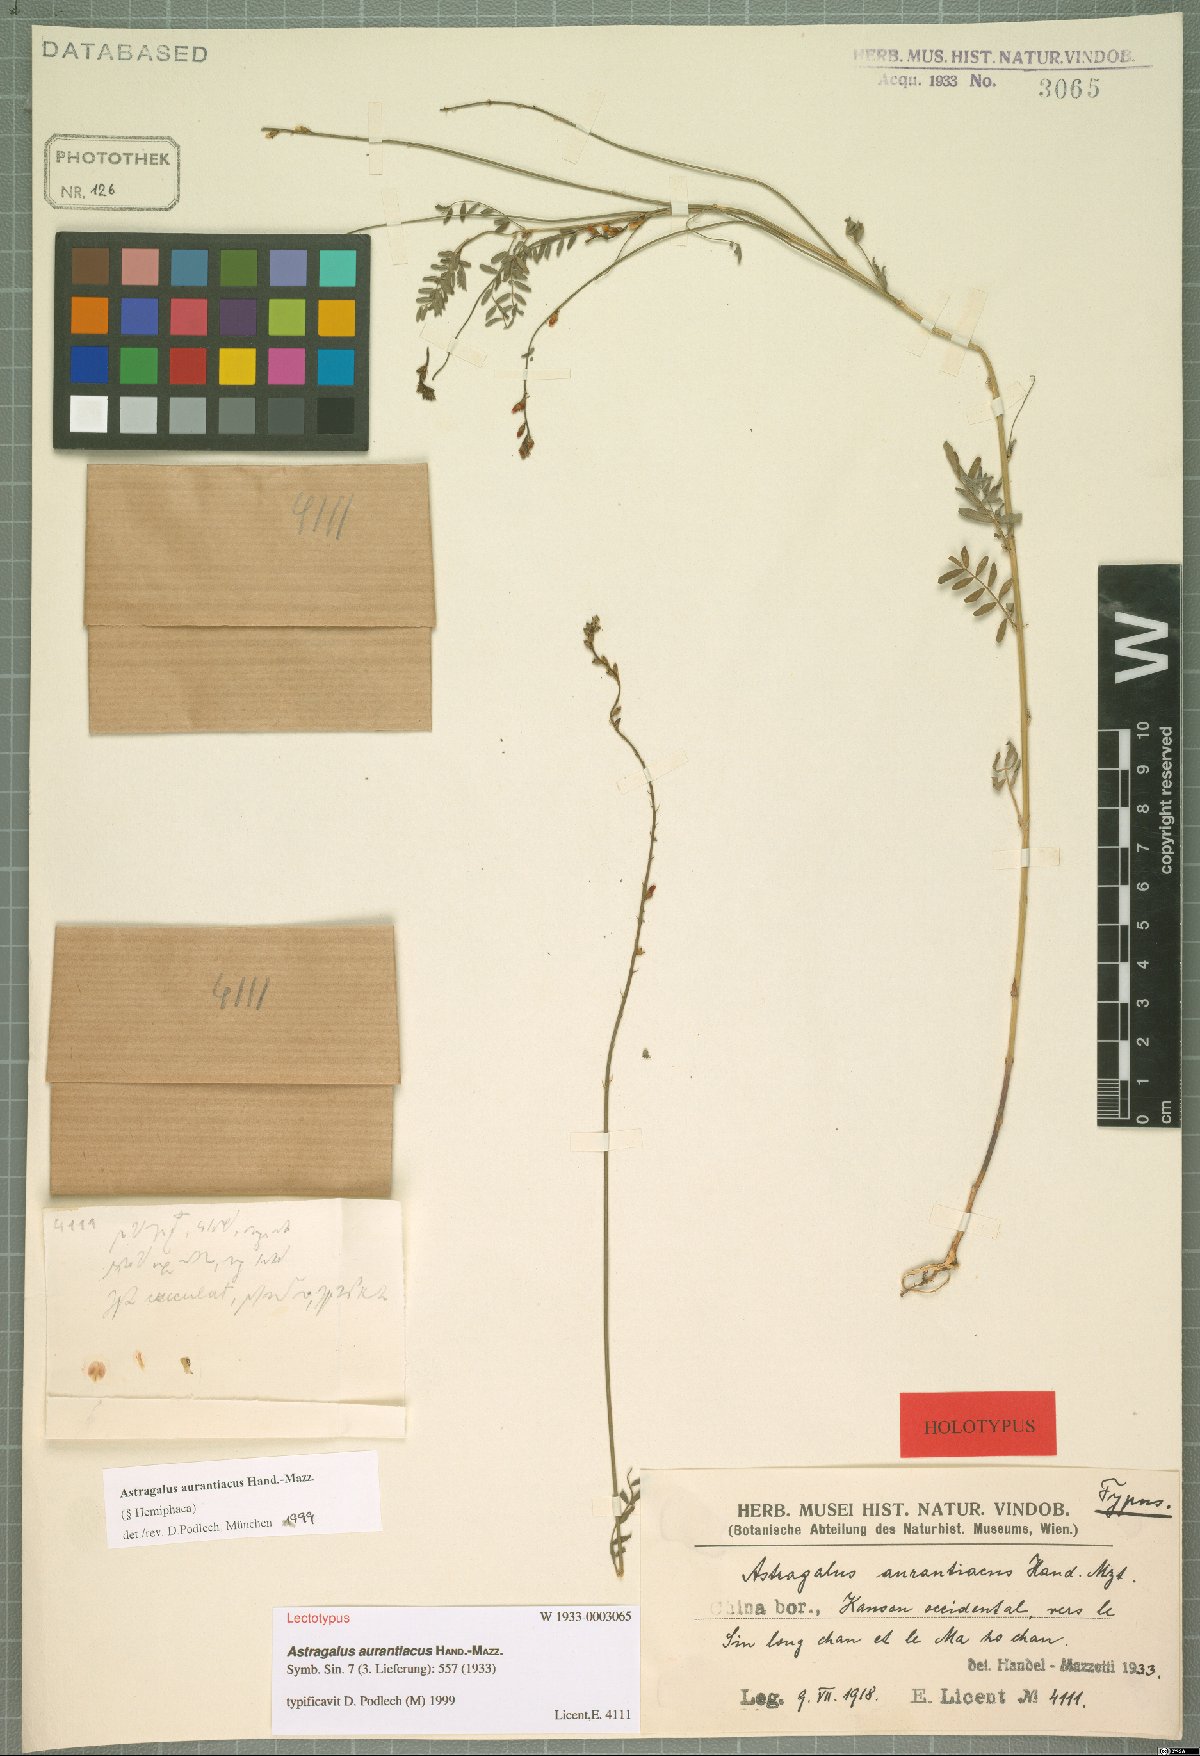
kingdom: Plantae
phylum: Tracheophyta
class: Magnoliopsida
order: Fabales
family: Fabaceae
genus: Astragalus
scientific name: Astragalus aurantiacus
